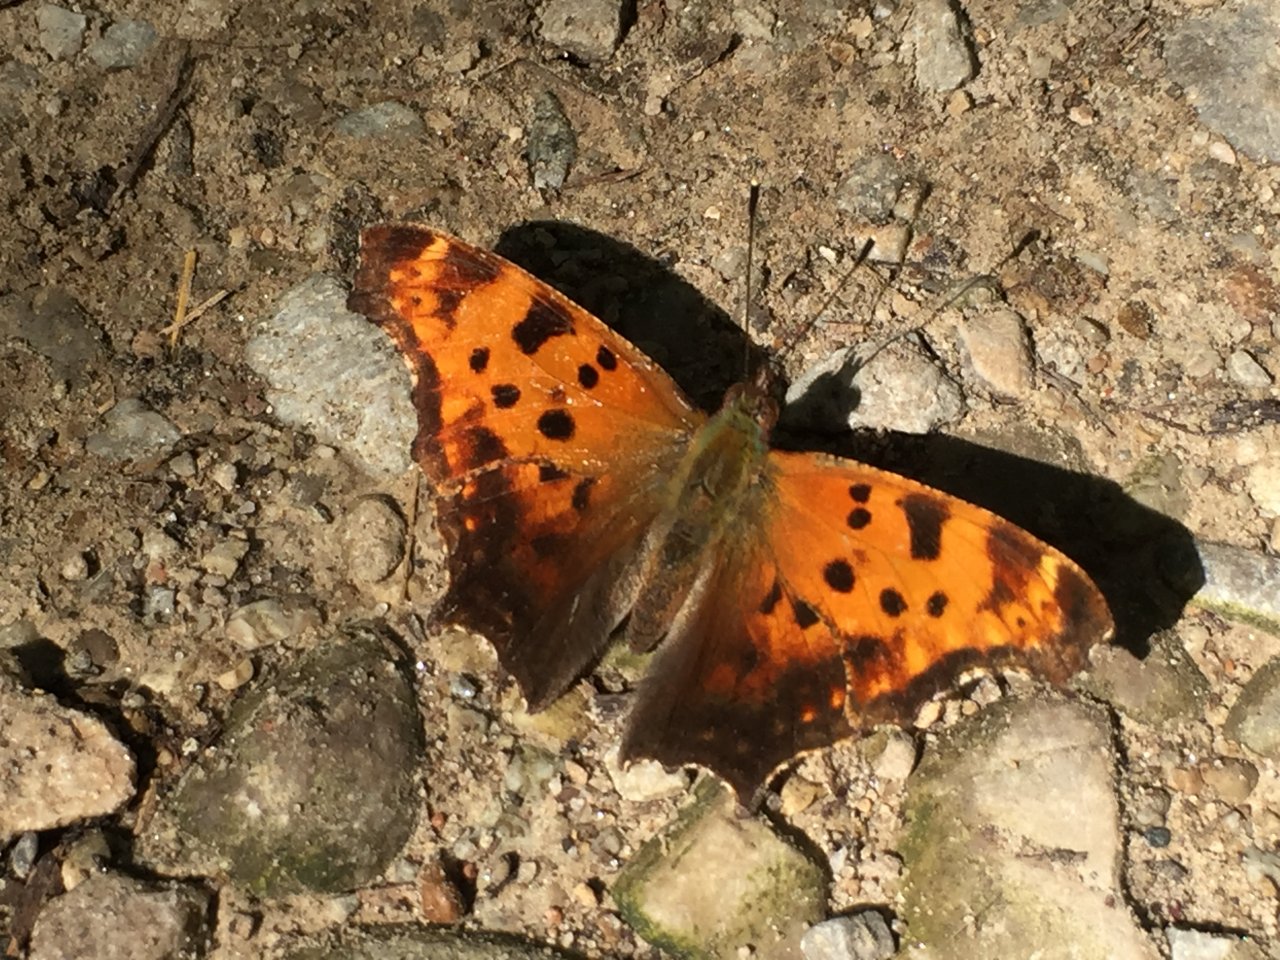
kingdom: Animalia
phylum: Arthropoda
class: Insecta
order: Lepidoptera
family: Nymphalidae
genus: Polygonia
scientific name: Polygonia comma
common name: Eastern Comma
